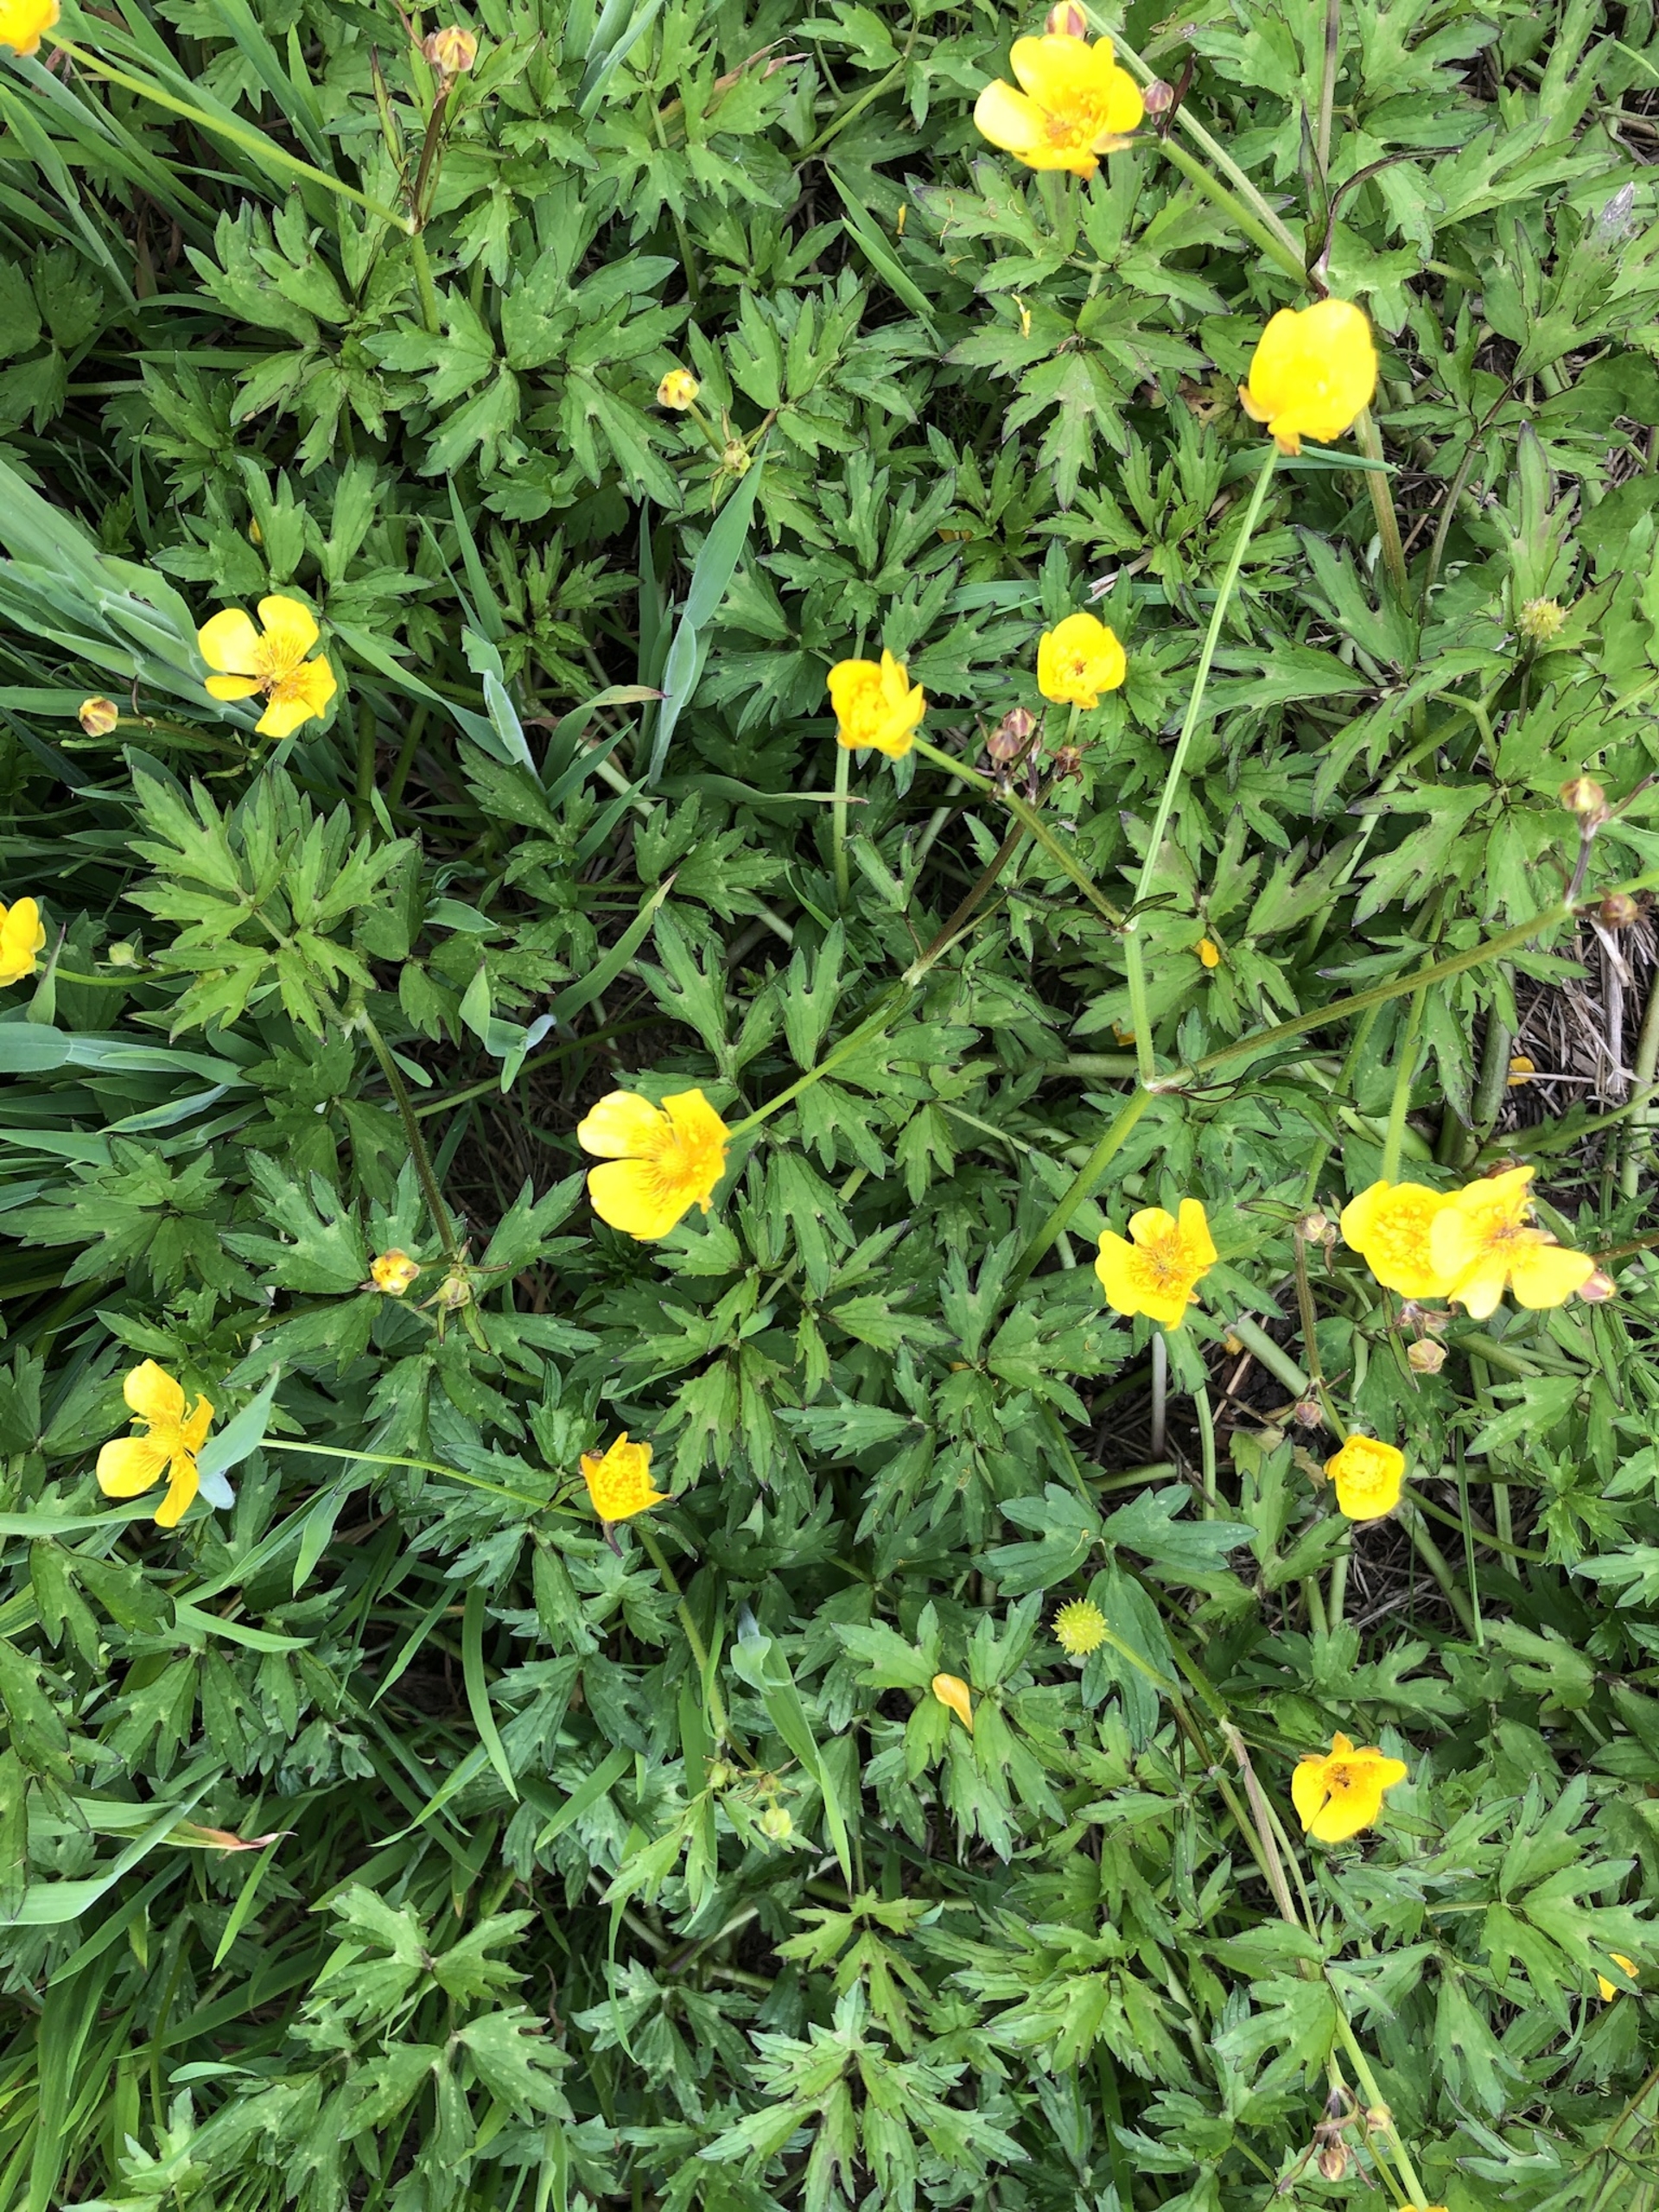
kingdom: Plantae
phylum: Tracheophyta
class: Magnoliopsida
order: Ranunculales
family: Ranunculaceae
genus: Ranunculus
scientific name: Ranunculus repens
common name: Lav ranunkel
